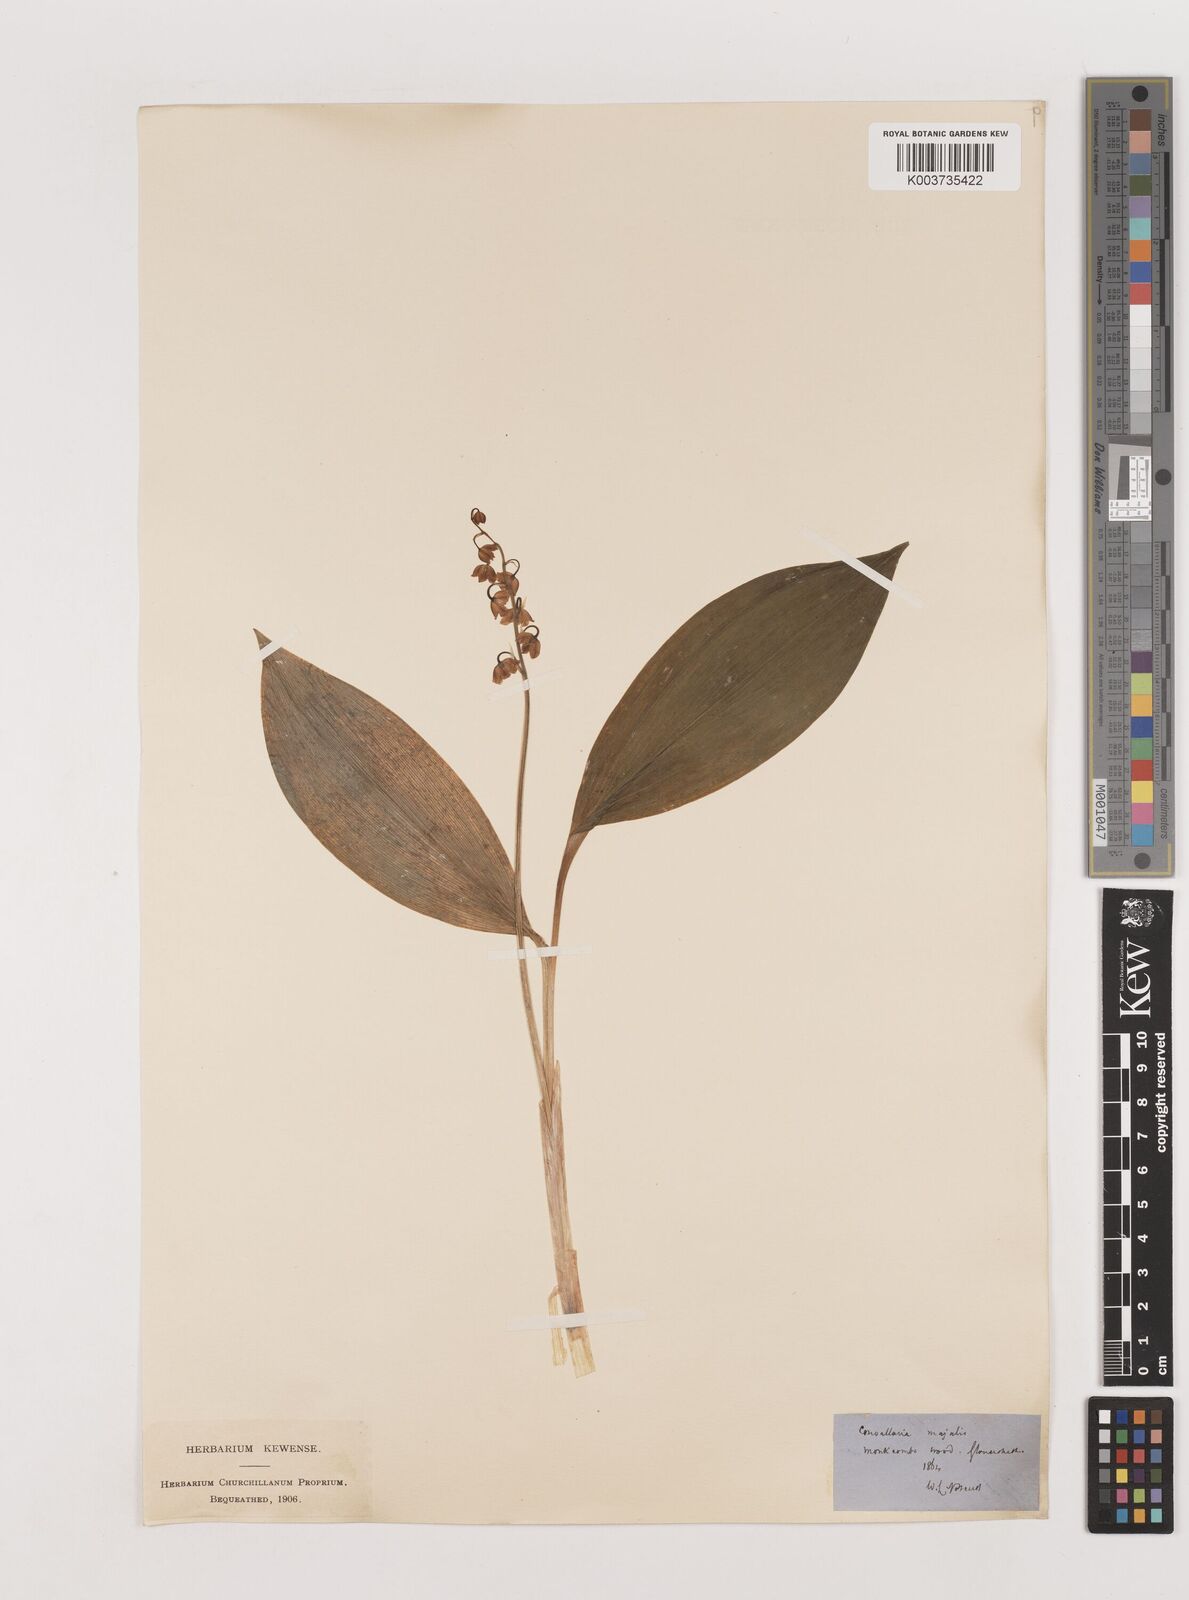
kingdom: Plantae
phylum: Tracheophyta
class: Liliopsida
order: Asparagales
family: Asparagaceae
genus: Convallaria
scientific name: Convallaria majalis
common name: Lily-of-the-valley
